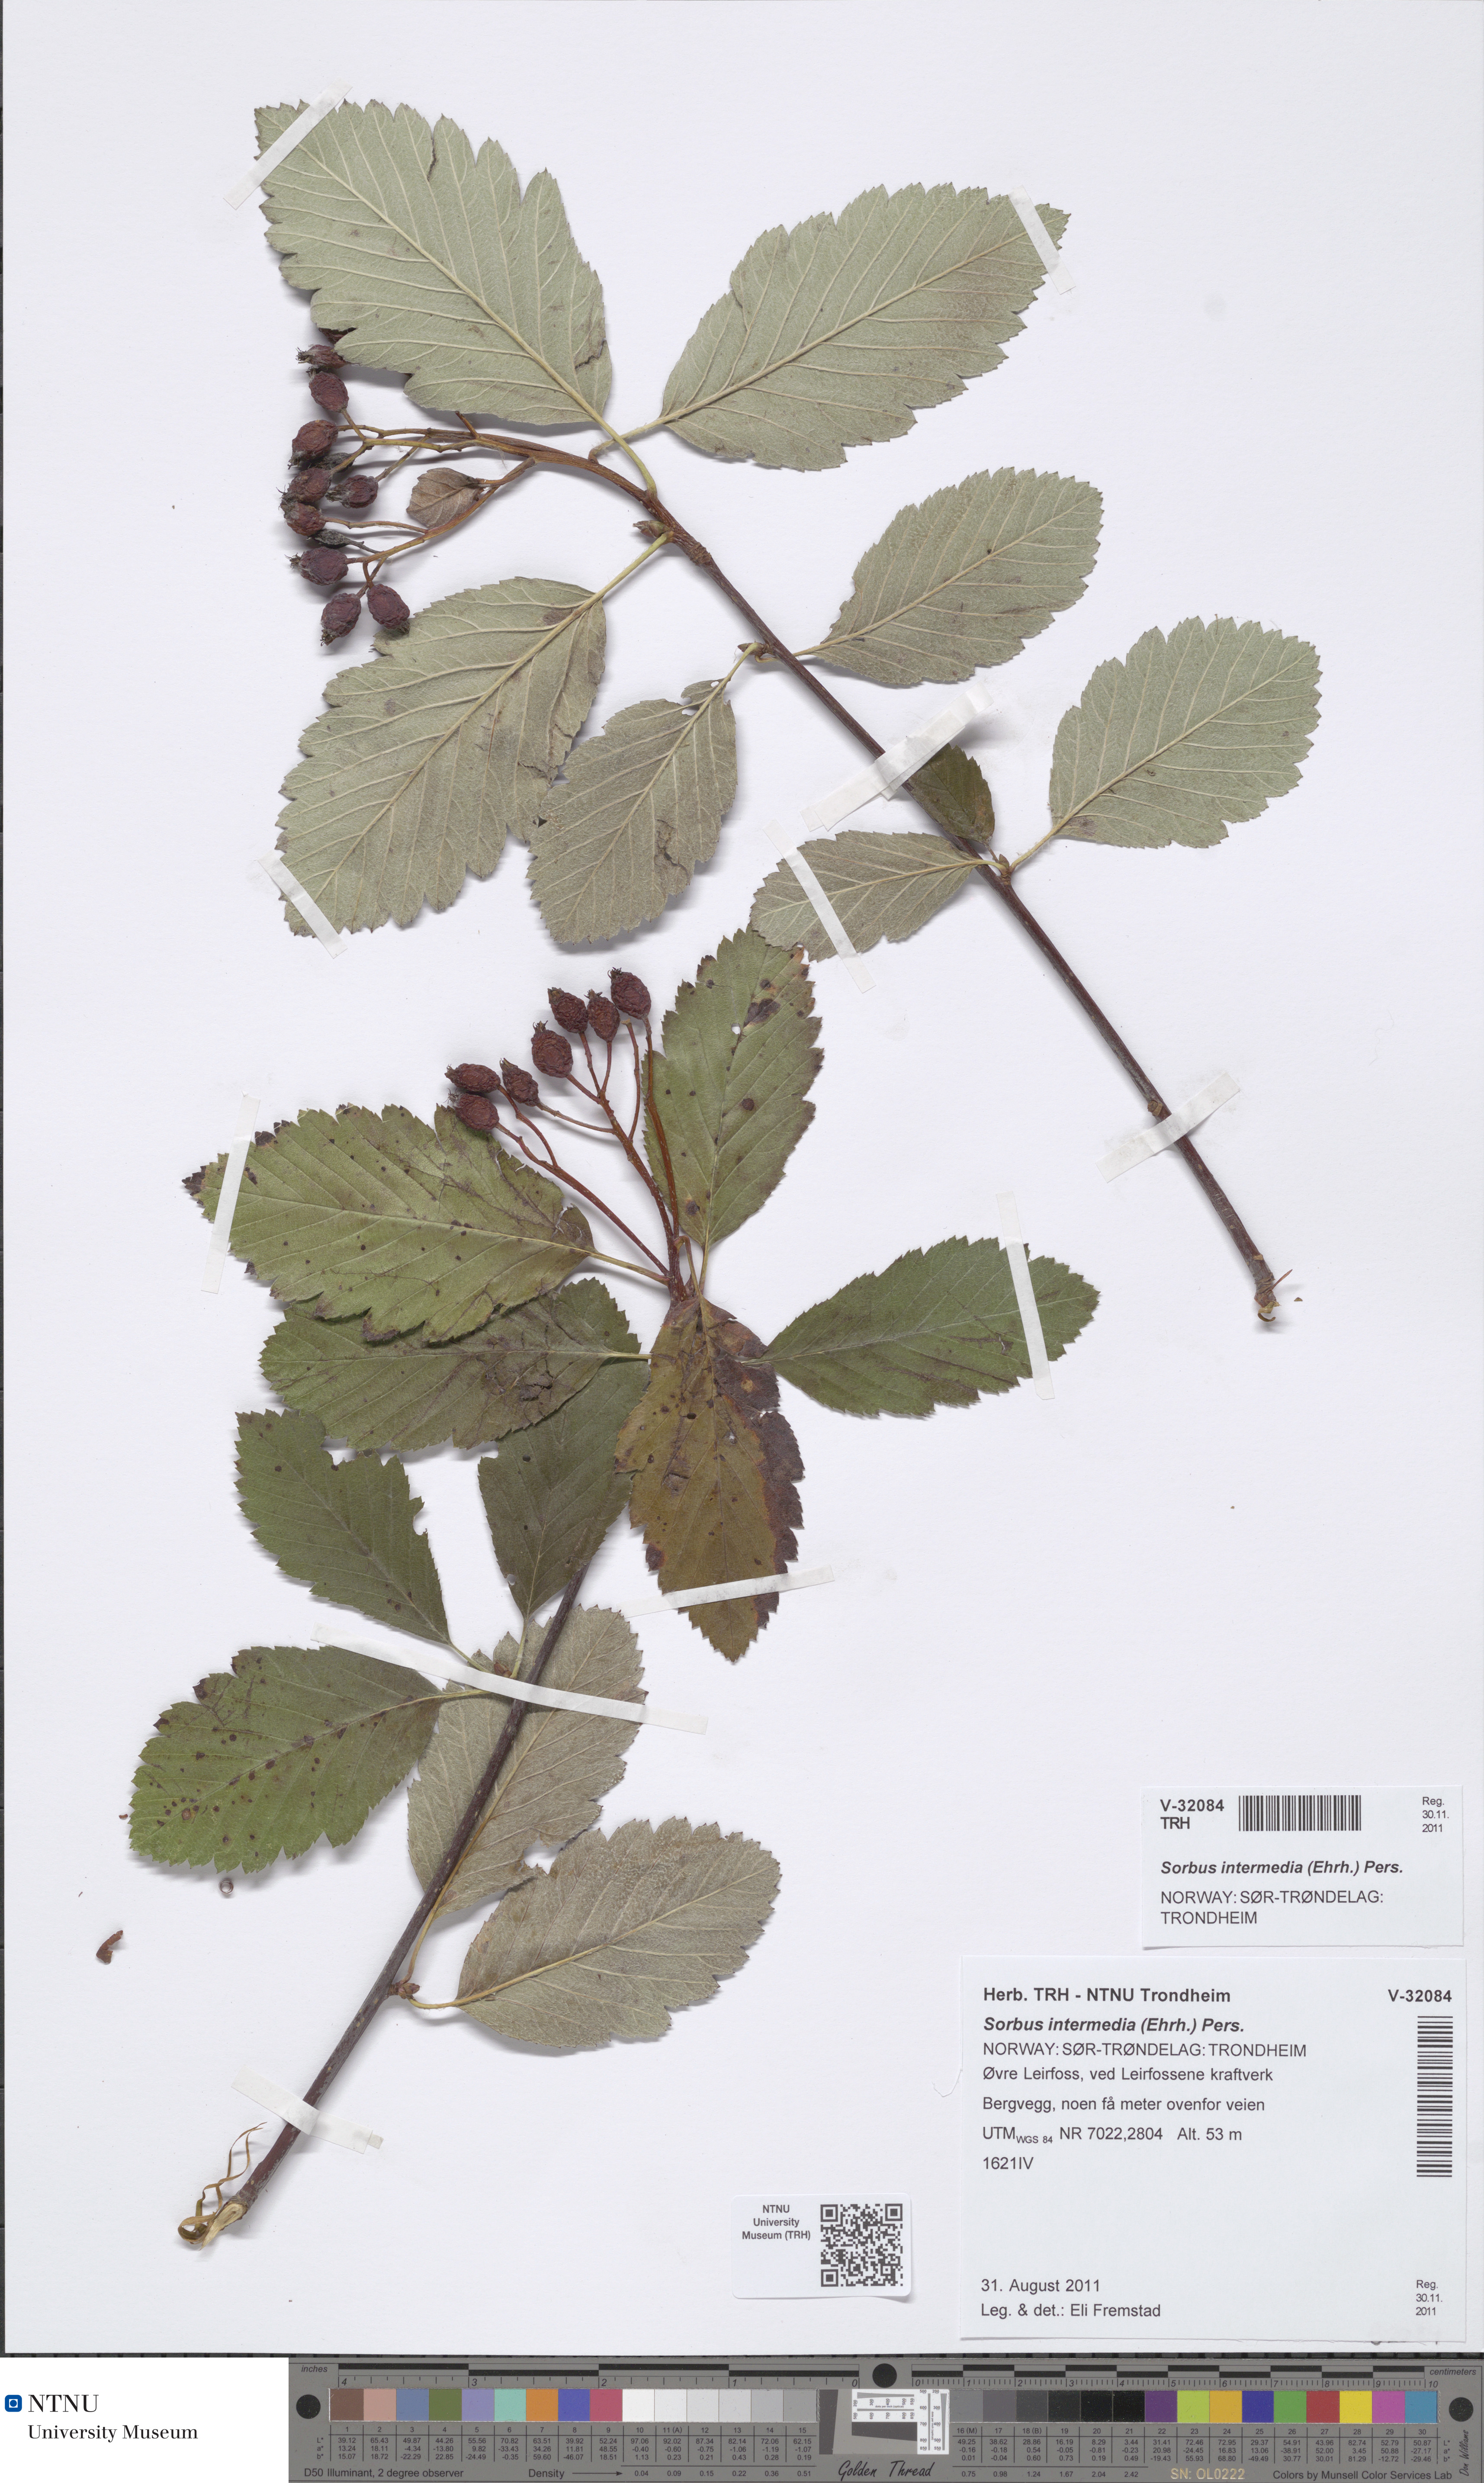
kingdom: Plantae
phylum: Tracheophyta
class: Magnoliopsida
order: Rosales
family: Rosaceae
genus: Scandosorbus
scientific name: Scandosorbus intermedia
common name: Swedish whitebeam
